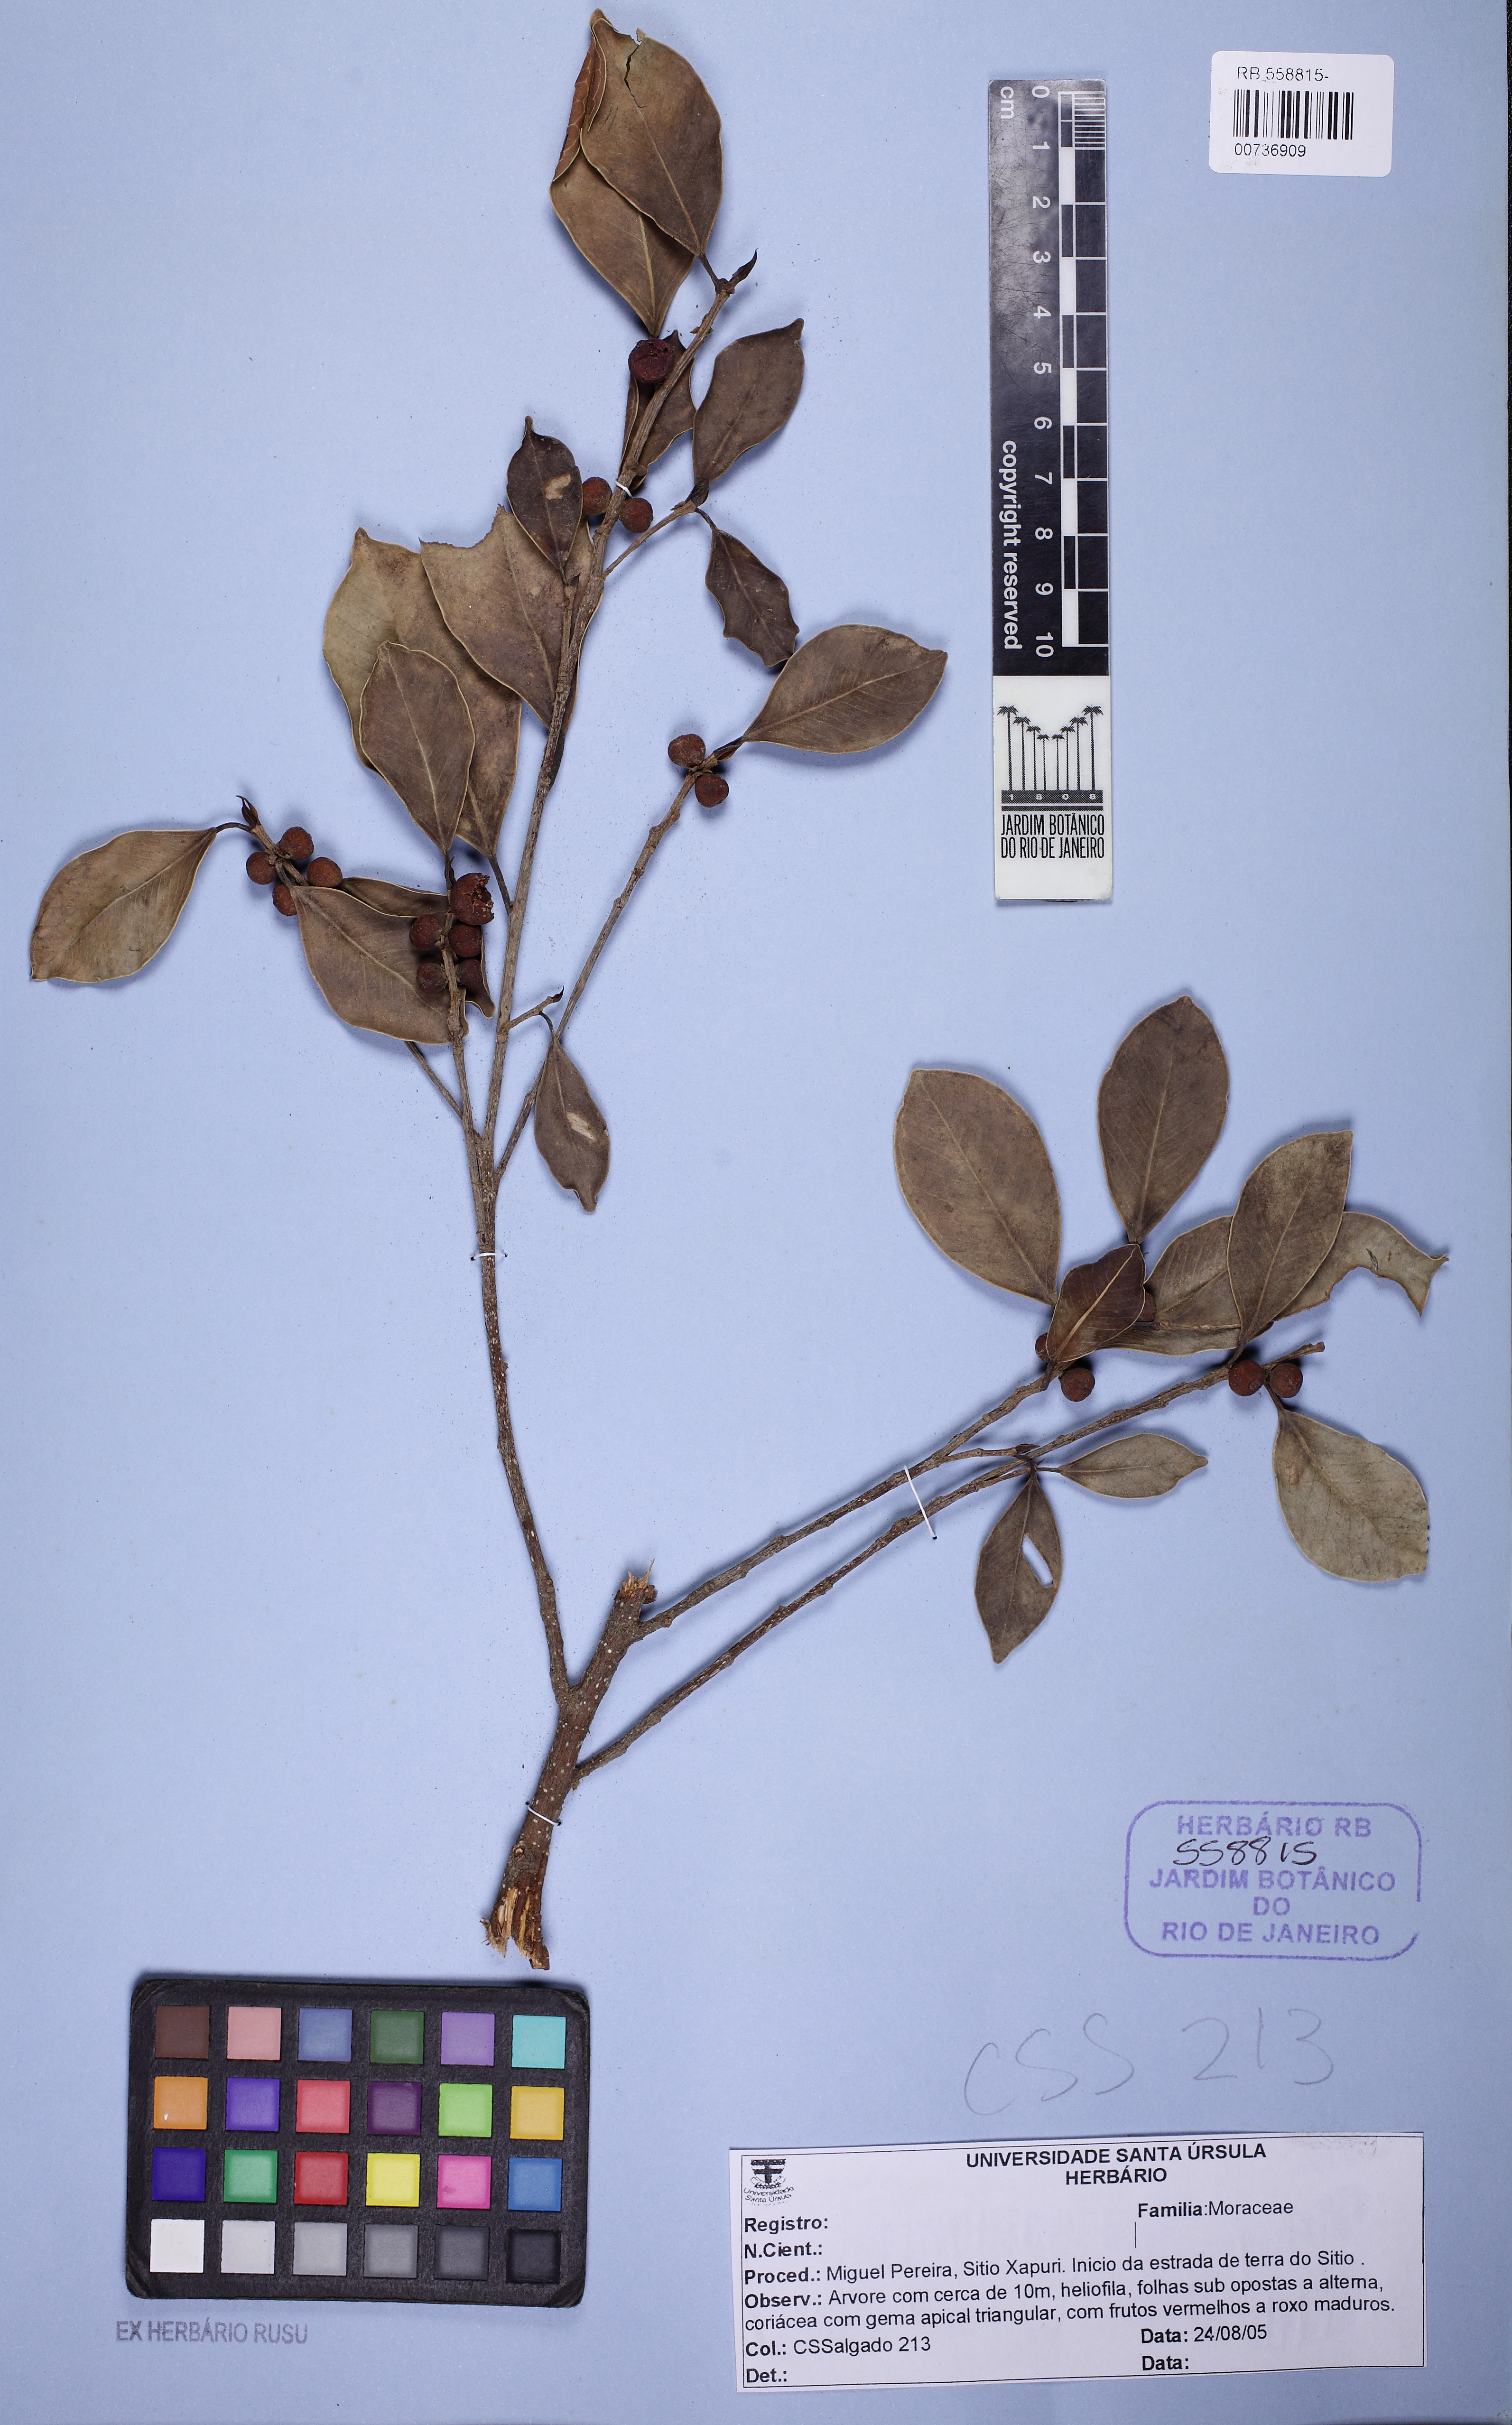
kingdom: Plantae
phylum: Tracheophyta
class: Magnoliopsida
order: Rosales
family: Moraceae
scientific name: Moraceae
